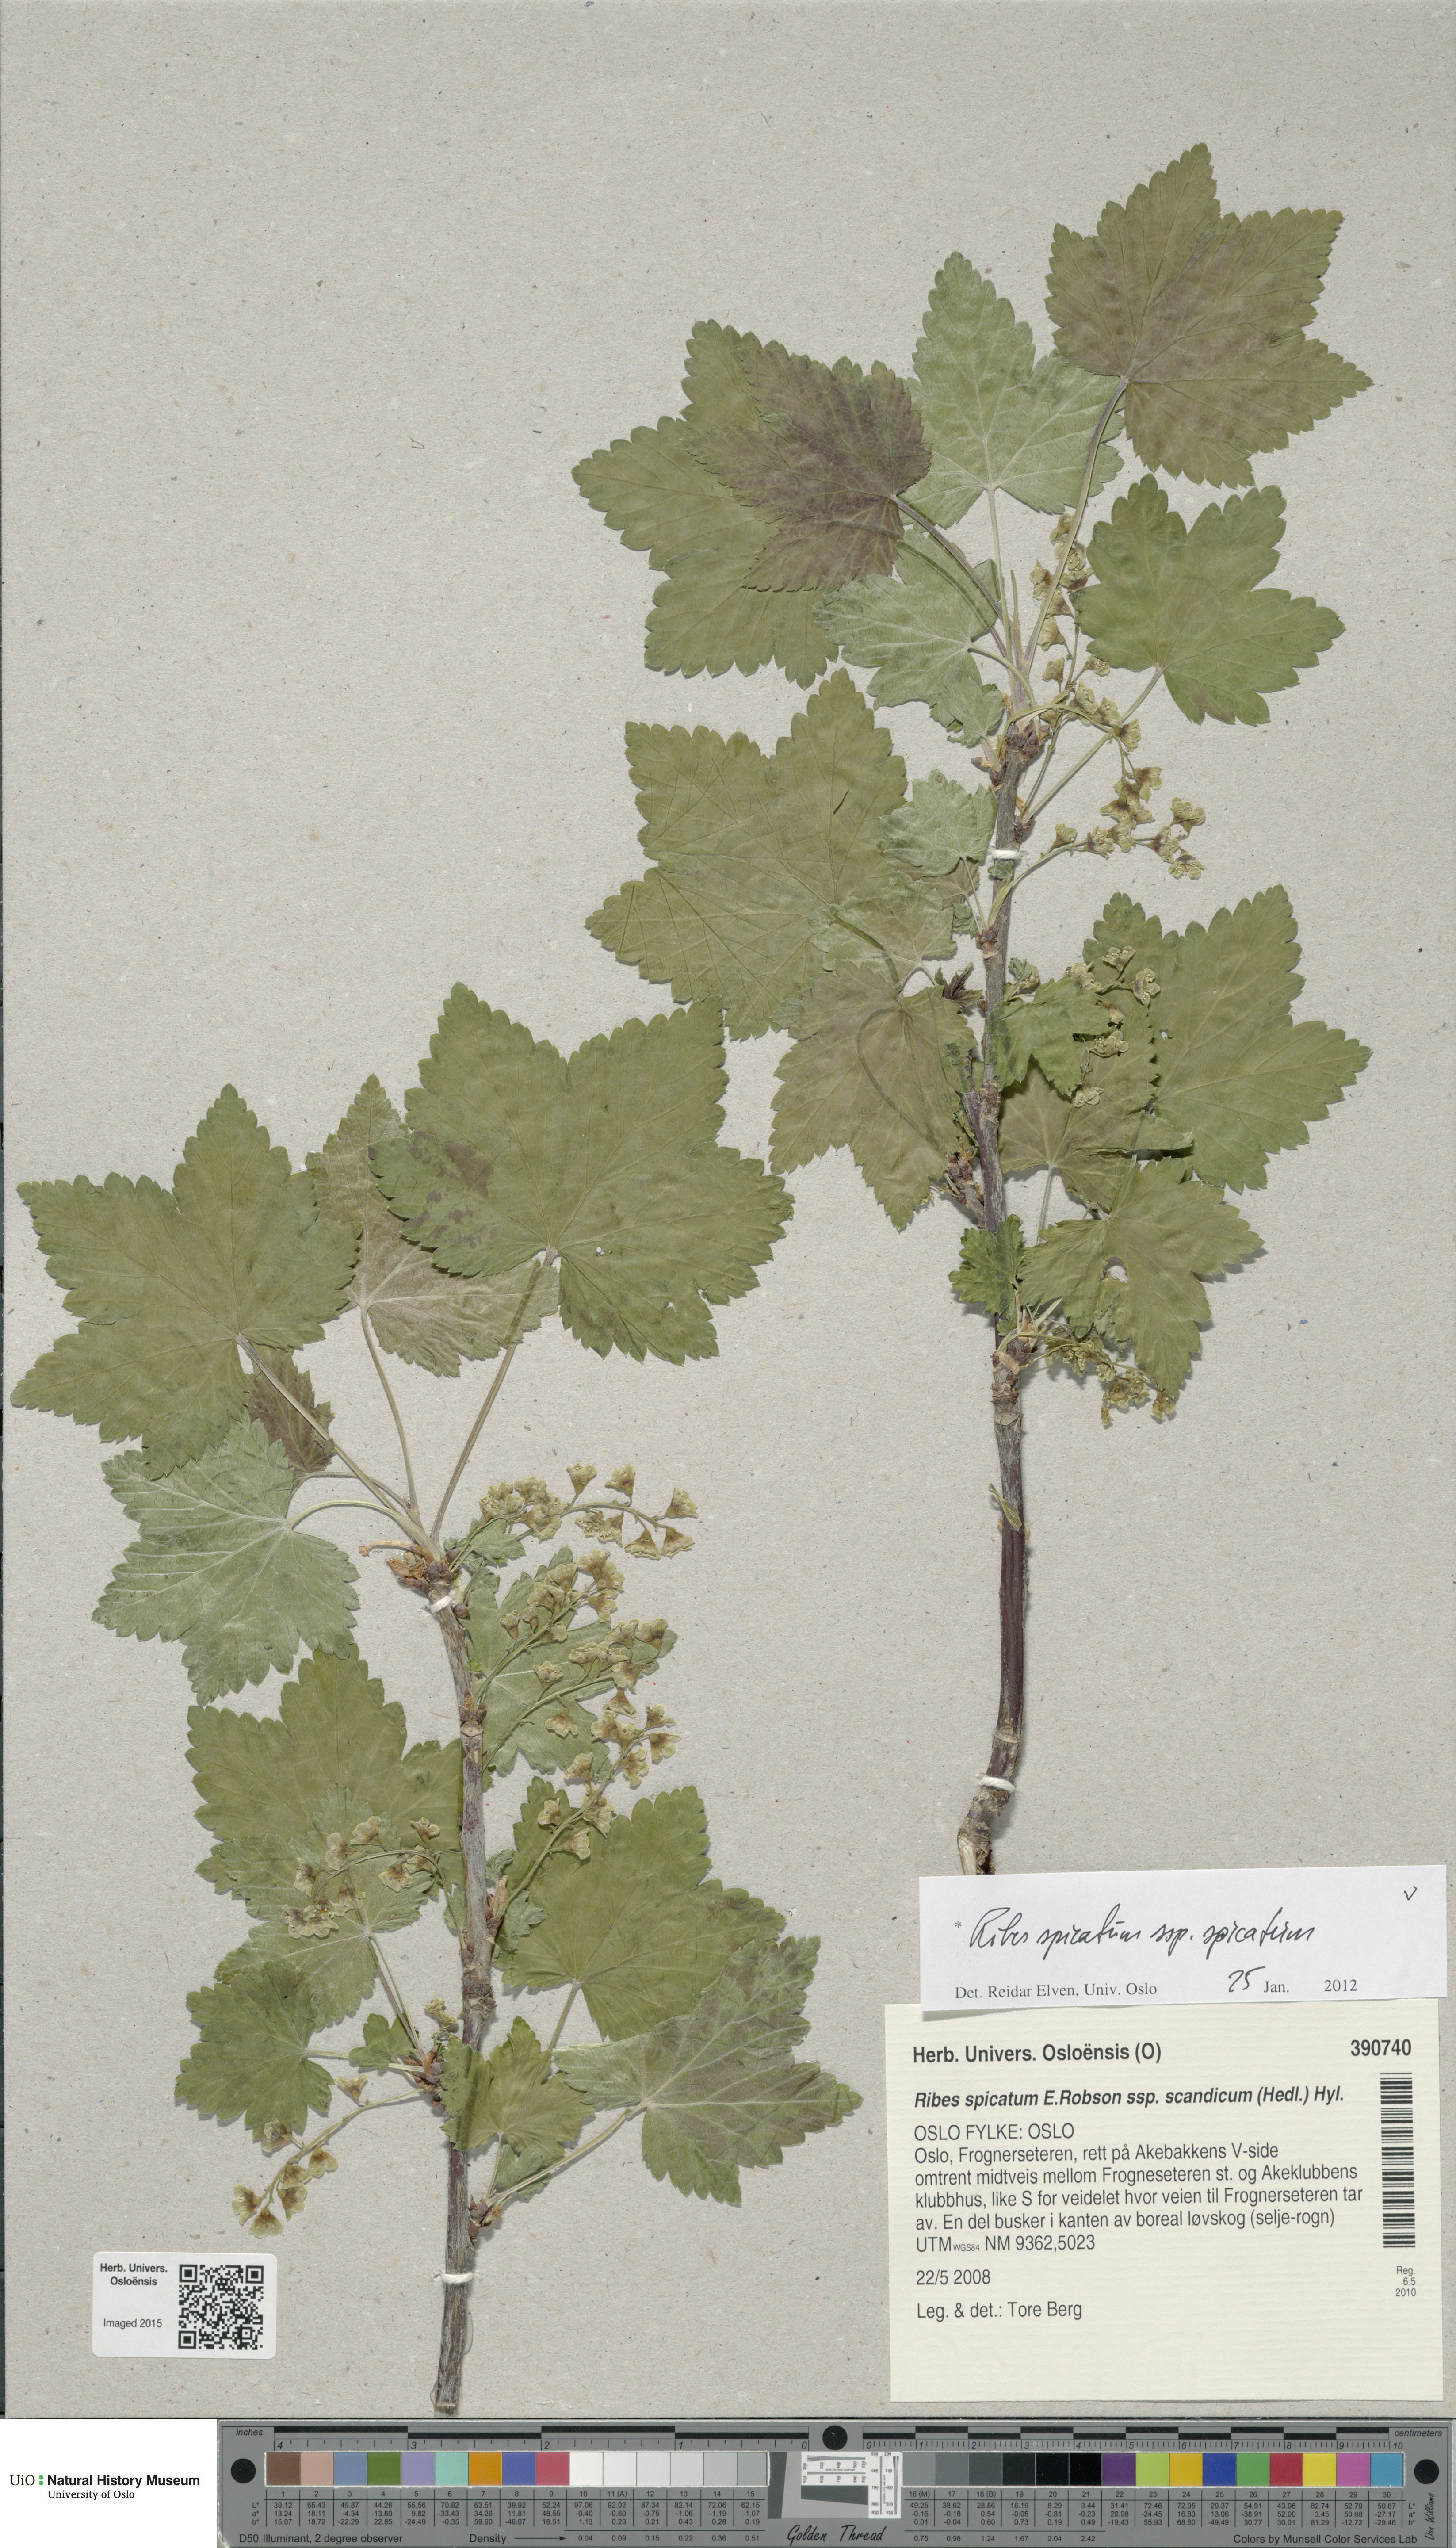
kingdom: Plantae
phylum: Tracheophyta
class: Magnoliopsida
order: Saxifragales
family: Grossulariaceae
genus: Ribes
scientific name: Ribes spicatum
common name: Downy currant
